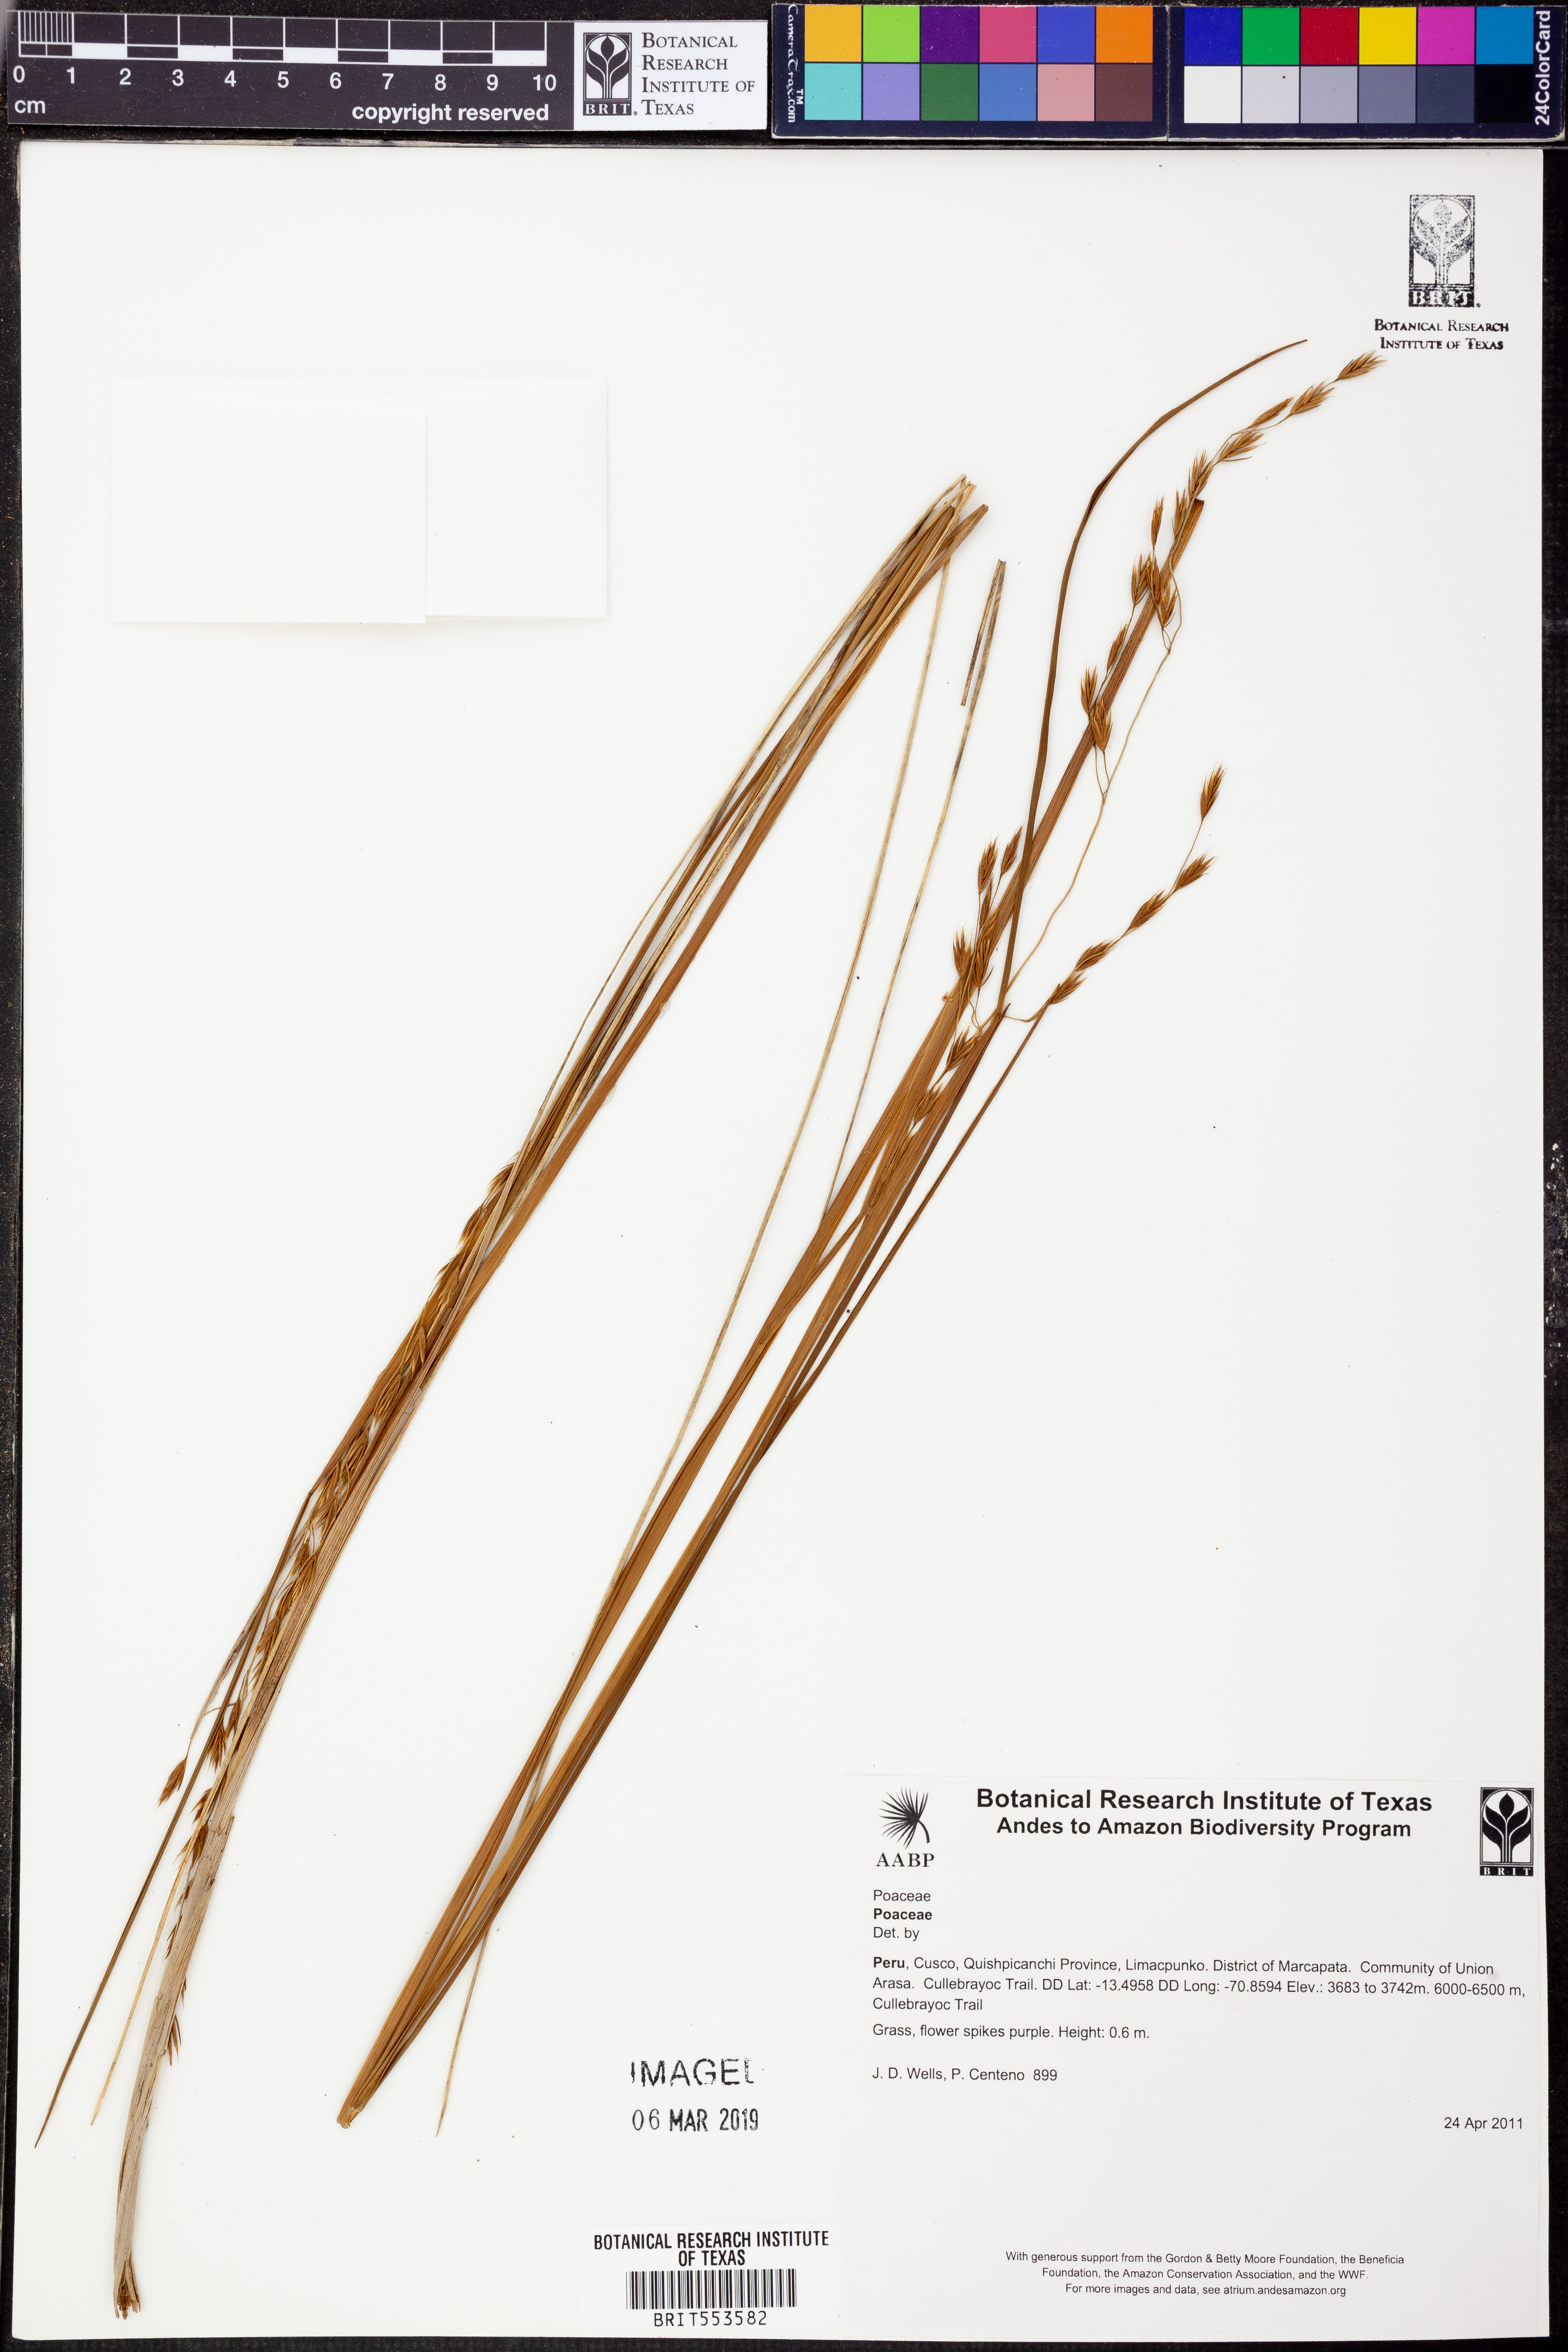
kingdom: Plantae
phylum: Tracheophyta
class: Liliopsida
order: Poales
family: Poaceae
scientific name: Poaceae
